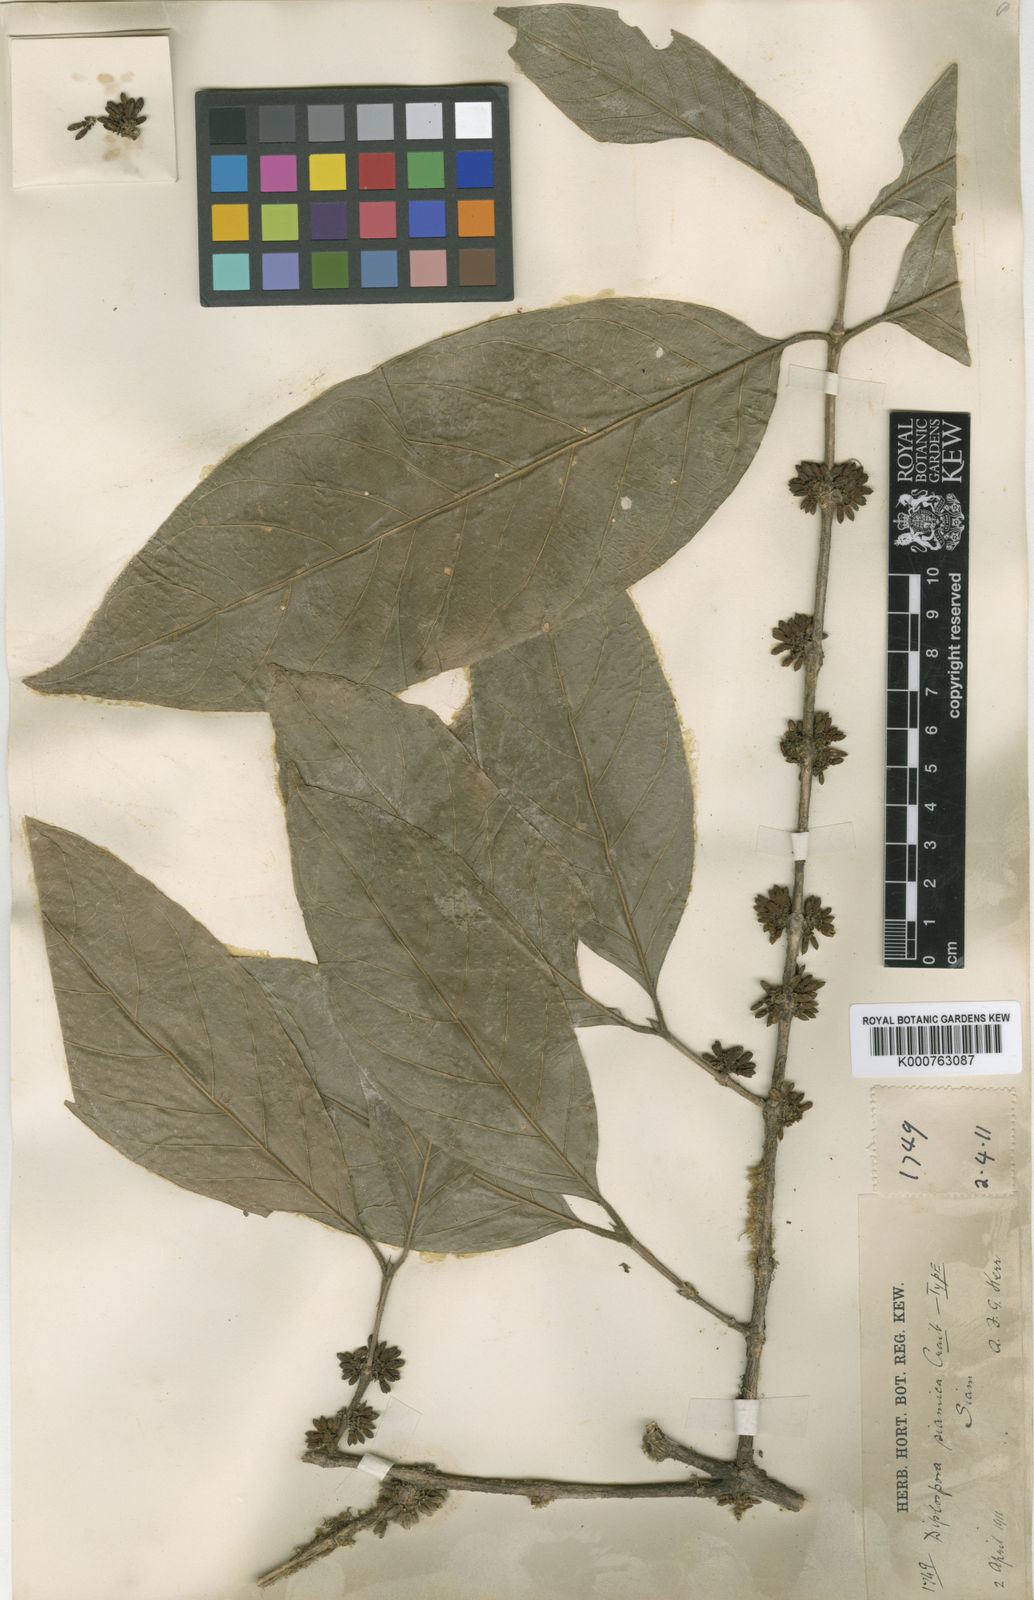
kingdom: Plantae
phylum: Tracheophyta
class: Magnoliopsida
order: Gentianales
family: Rubiaceae
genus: Diplospora
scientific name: Diplospora siamica
